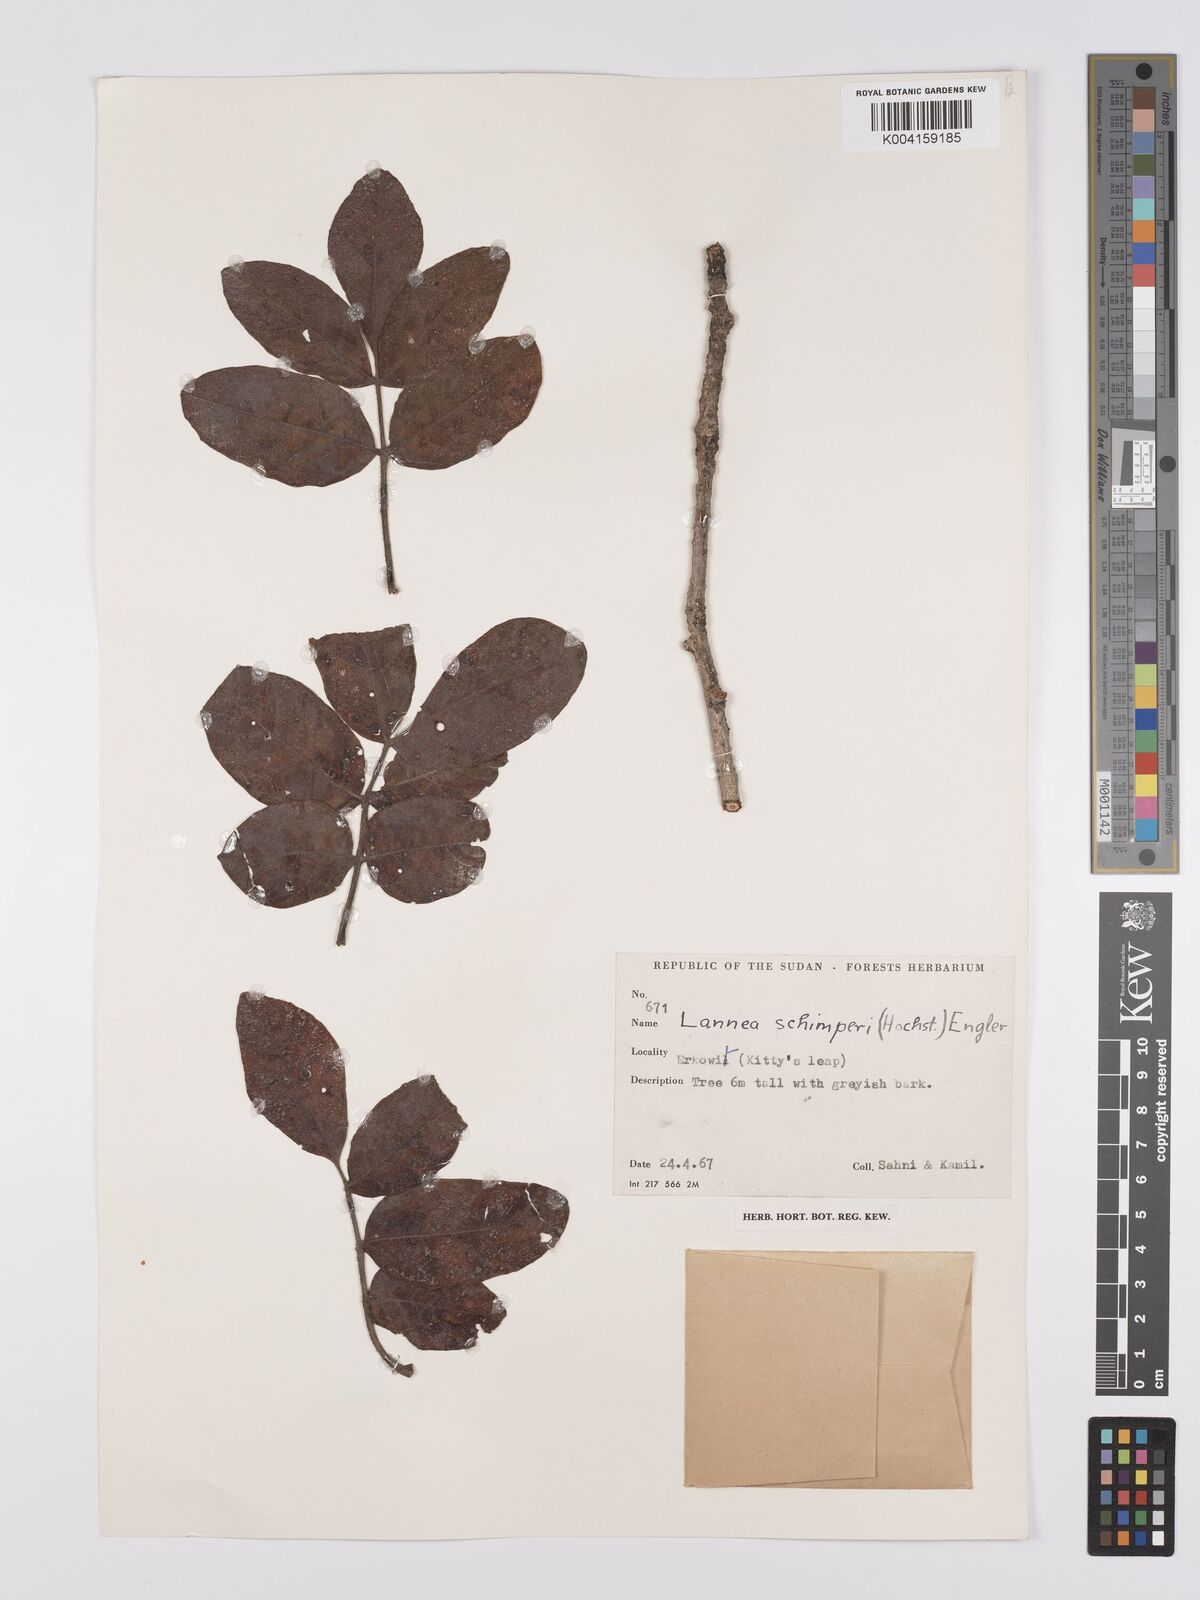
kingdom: Plantae
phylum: Tracheophyta
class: Magnoliopsida
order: Sapindales
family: Anacardiaceae
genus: Lannea
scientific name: Lannea schimperi
